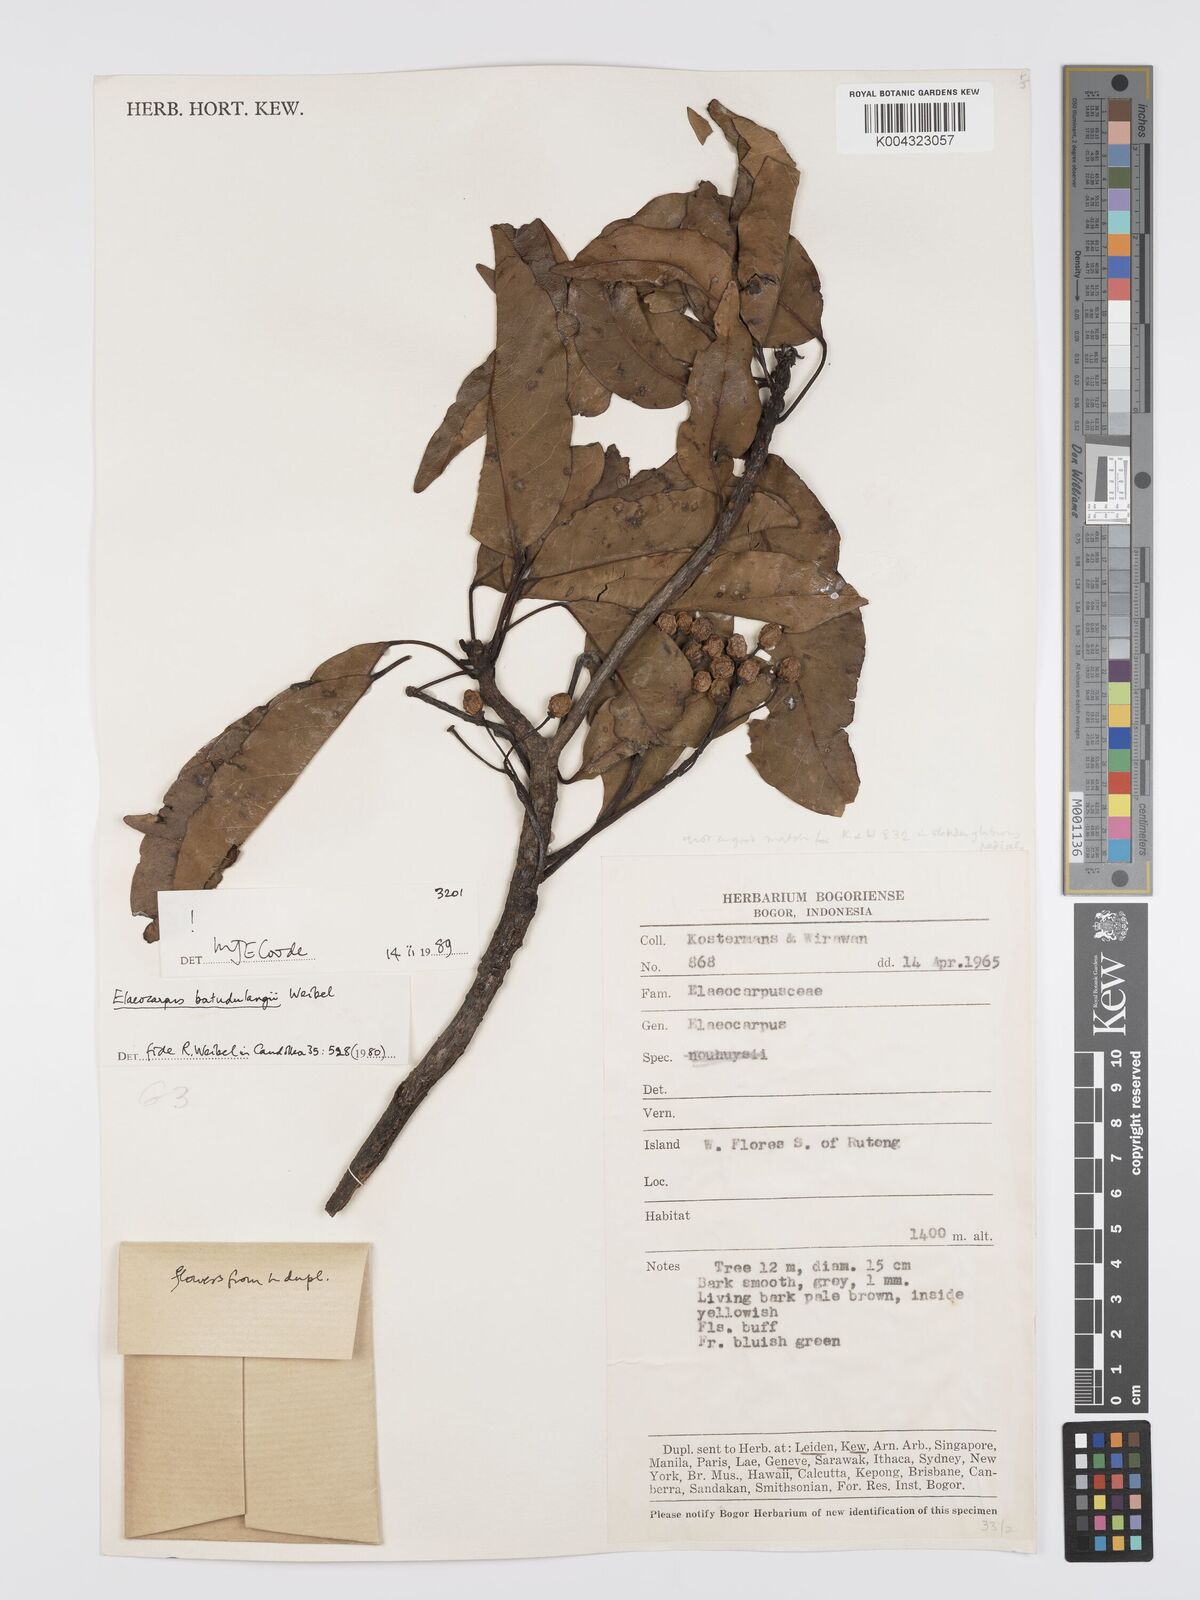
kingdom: Plantae
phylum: Tracheophyta
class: Magnoliopsida
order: Oxalidales
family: Elaeocarpaceae
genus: Elaeocarpus
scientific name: Elaeocarpus batudulangii
